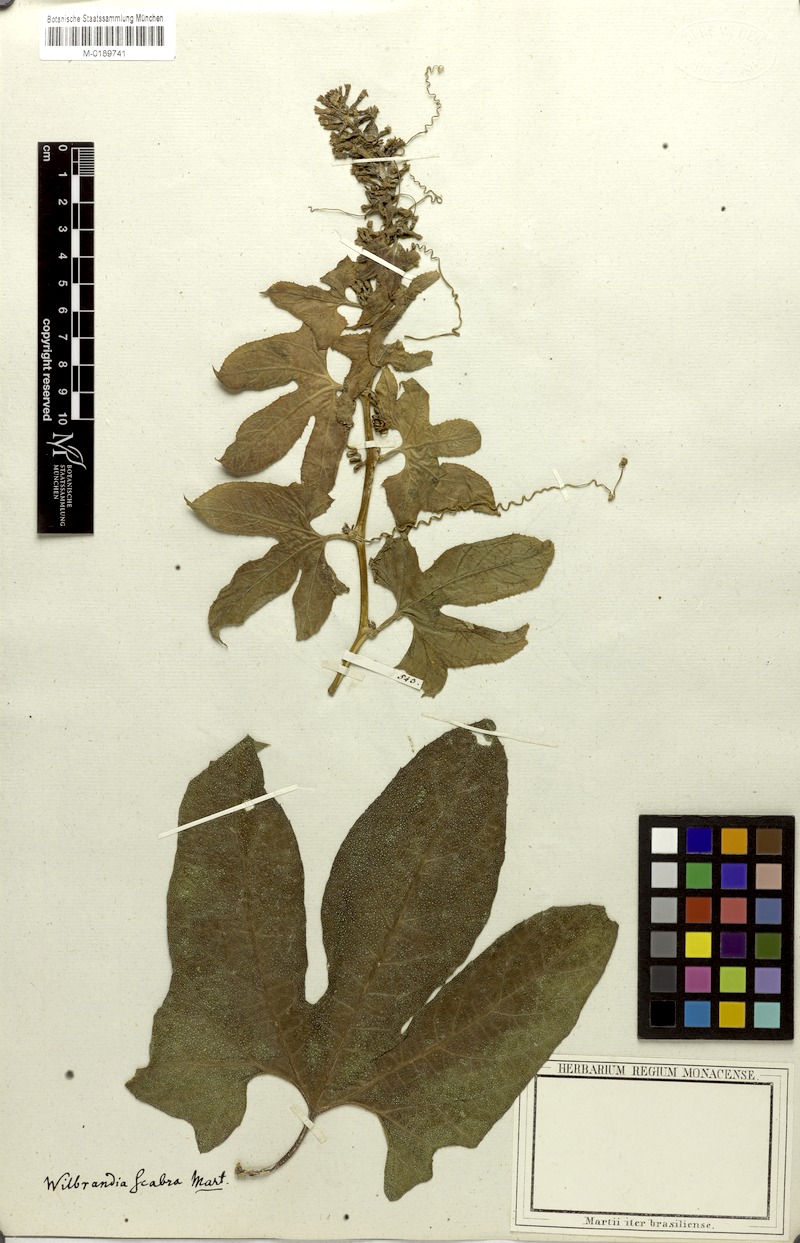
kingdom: Plantae
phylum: Tracheophyta
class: Magnoliopsida
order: Cucurbitales
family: Cucurbitaceae
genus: Wilbrandia
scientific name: Wilbrandia verticillata
